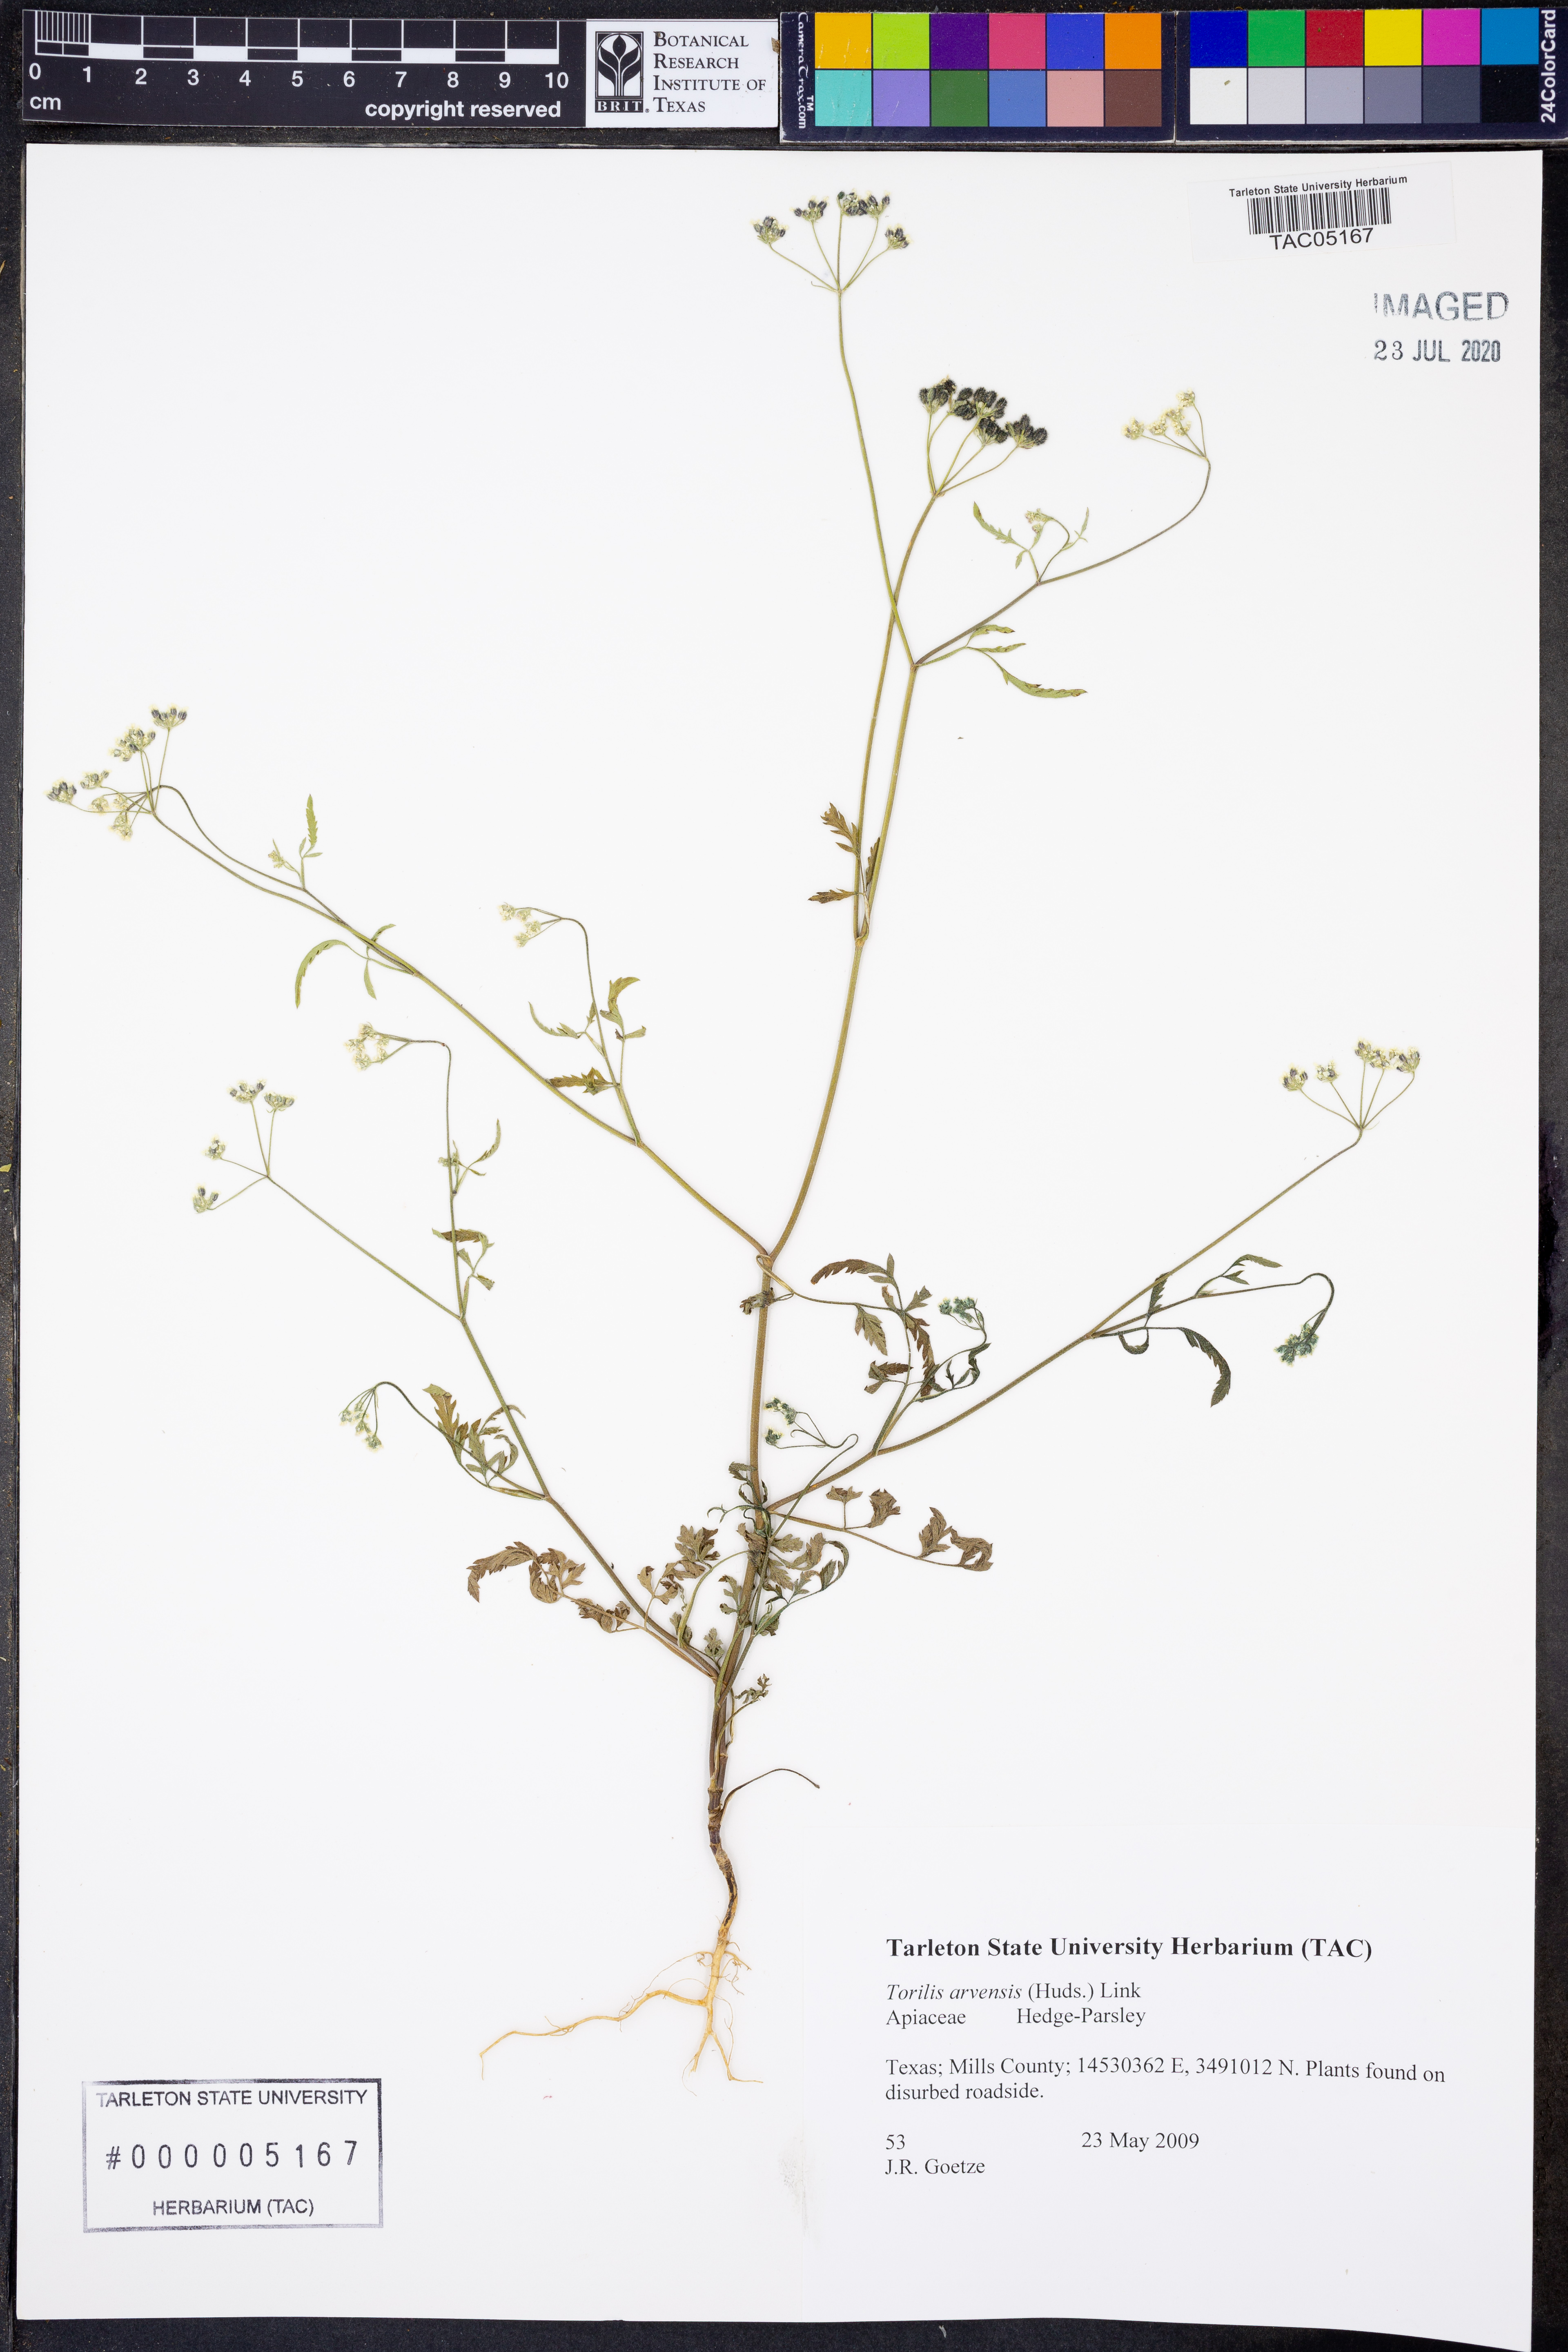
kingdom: Plantae
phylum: Tracheophyta
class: Magnoliopsida
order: Apiales
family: Apiaceae
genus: Torilis
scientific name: Torilis arvensis
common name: Spreading hedge-parsley
